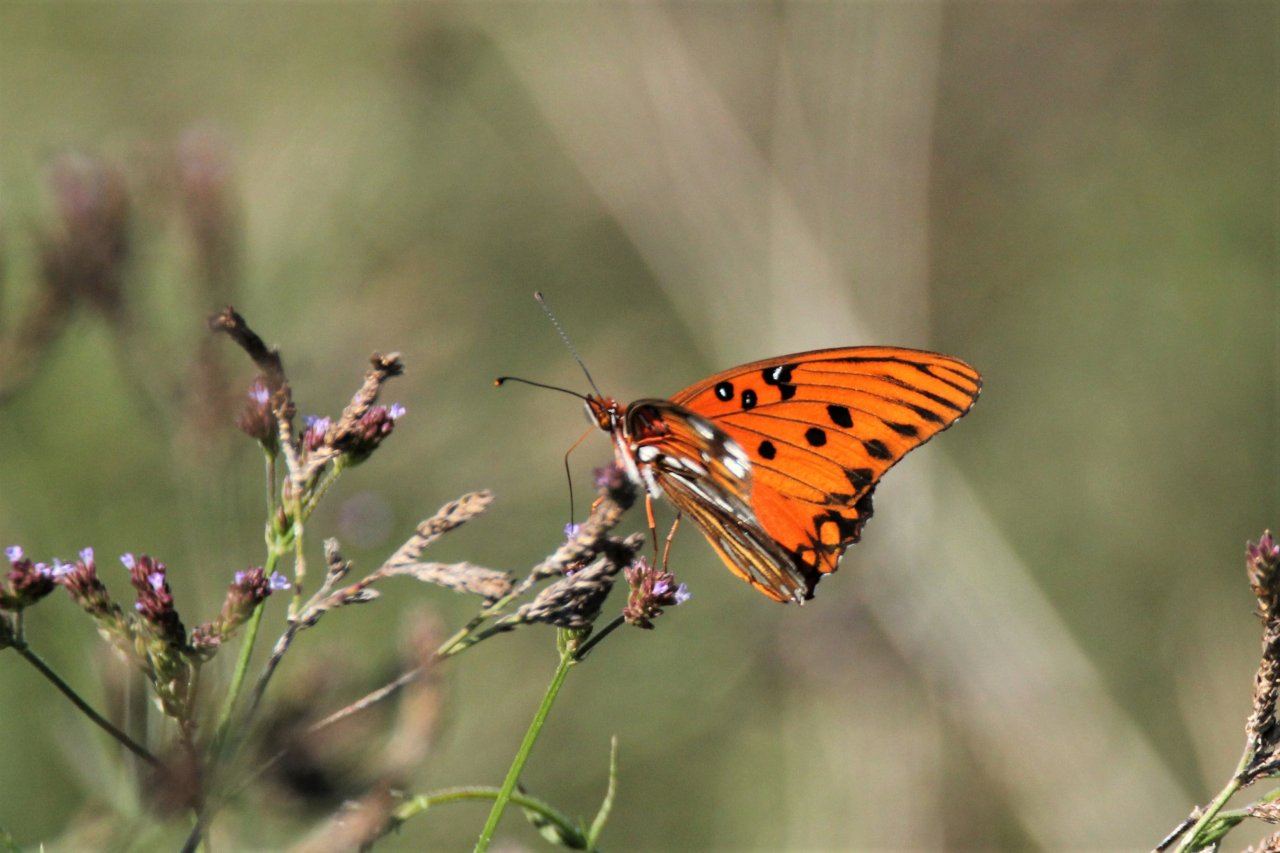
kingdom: Animalia
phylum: Arthropoda
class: Insecta
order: Lepidoptera
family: Nymphalidae
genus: Dione
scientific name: Dione vanillae
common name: Gulf Fritillary
